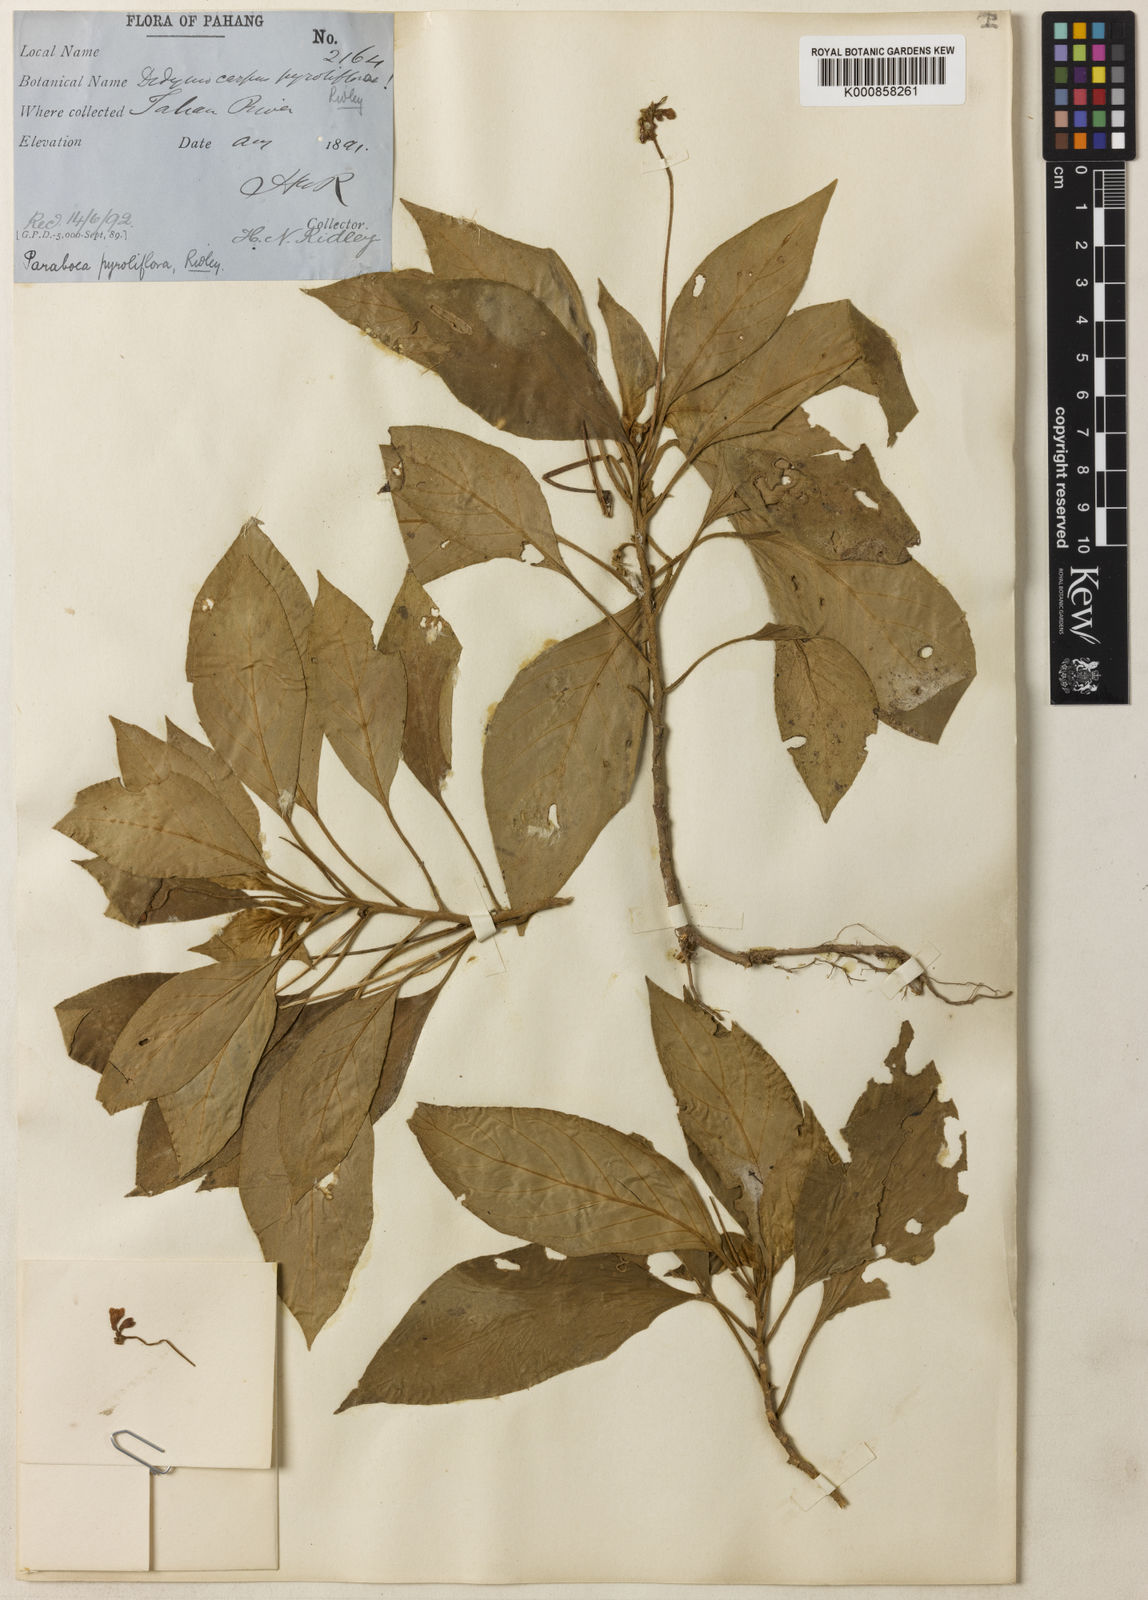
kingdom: Plantae
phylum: Tracheophyta
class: Magnoliopsida
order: Lamiales
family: Gesneriaceae
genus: Codonoboea
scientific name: Codonoboea pyroliflora
